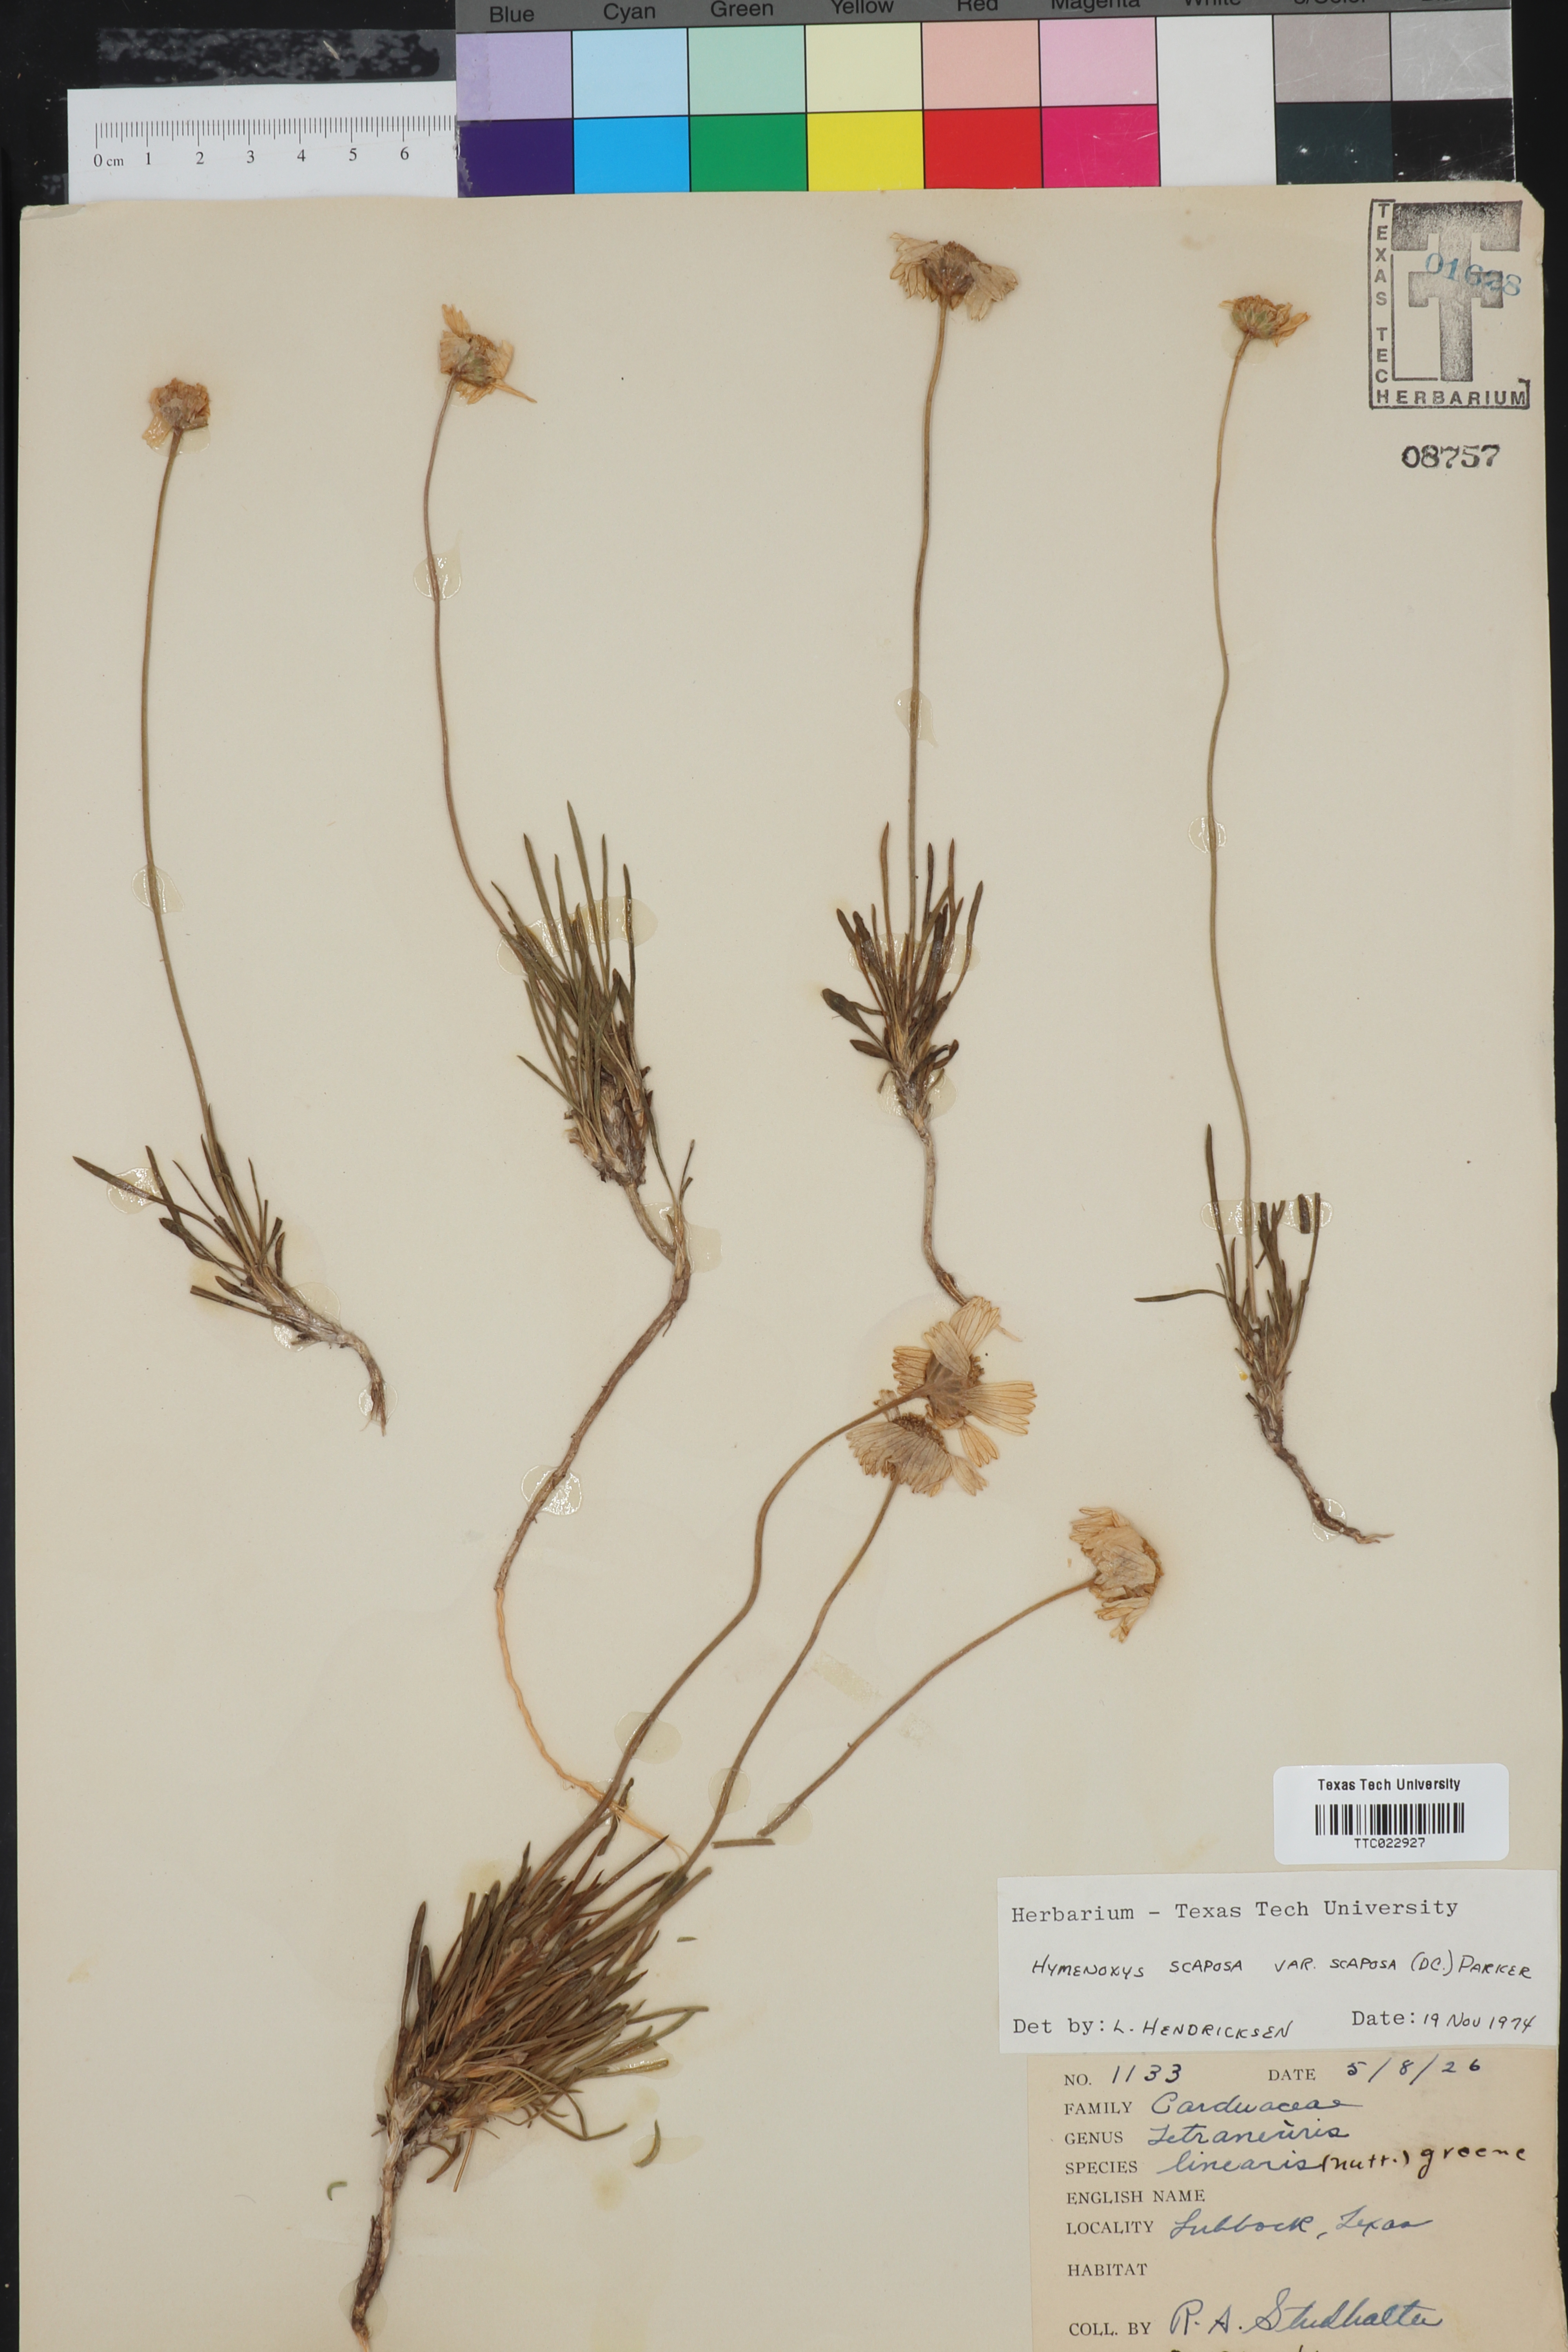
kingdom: Plantae
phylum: Tracheophyta
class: Magnoliopsida
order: Asterales
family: Asteraceae
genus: Tetraneuris
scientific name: Tetraneuris scaposa
